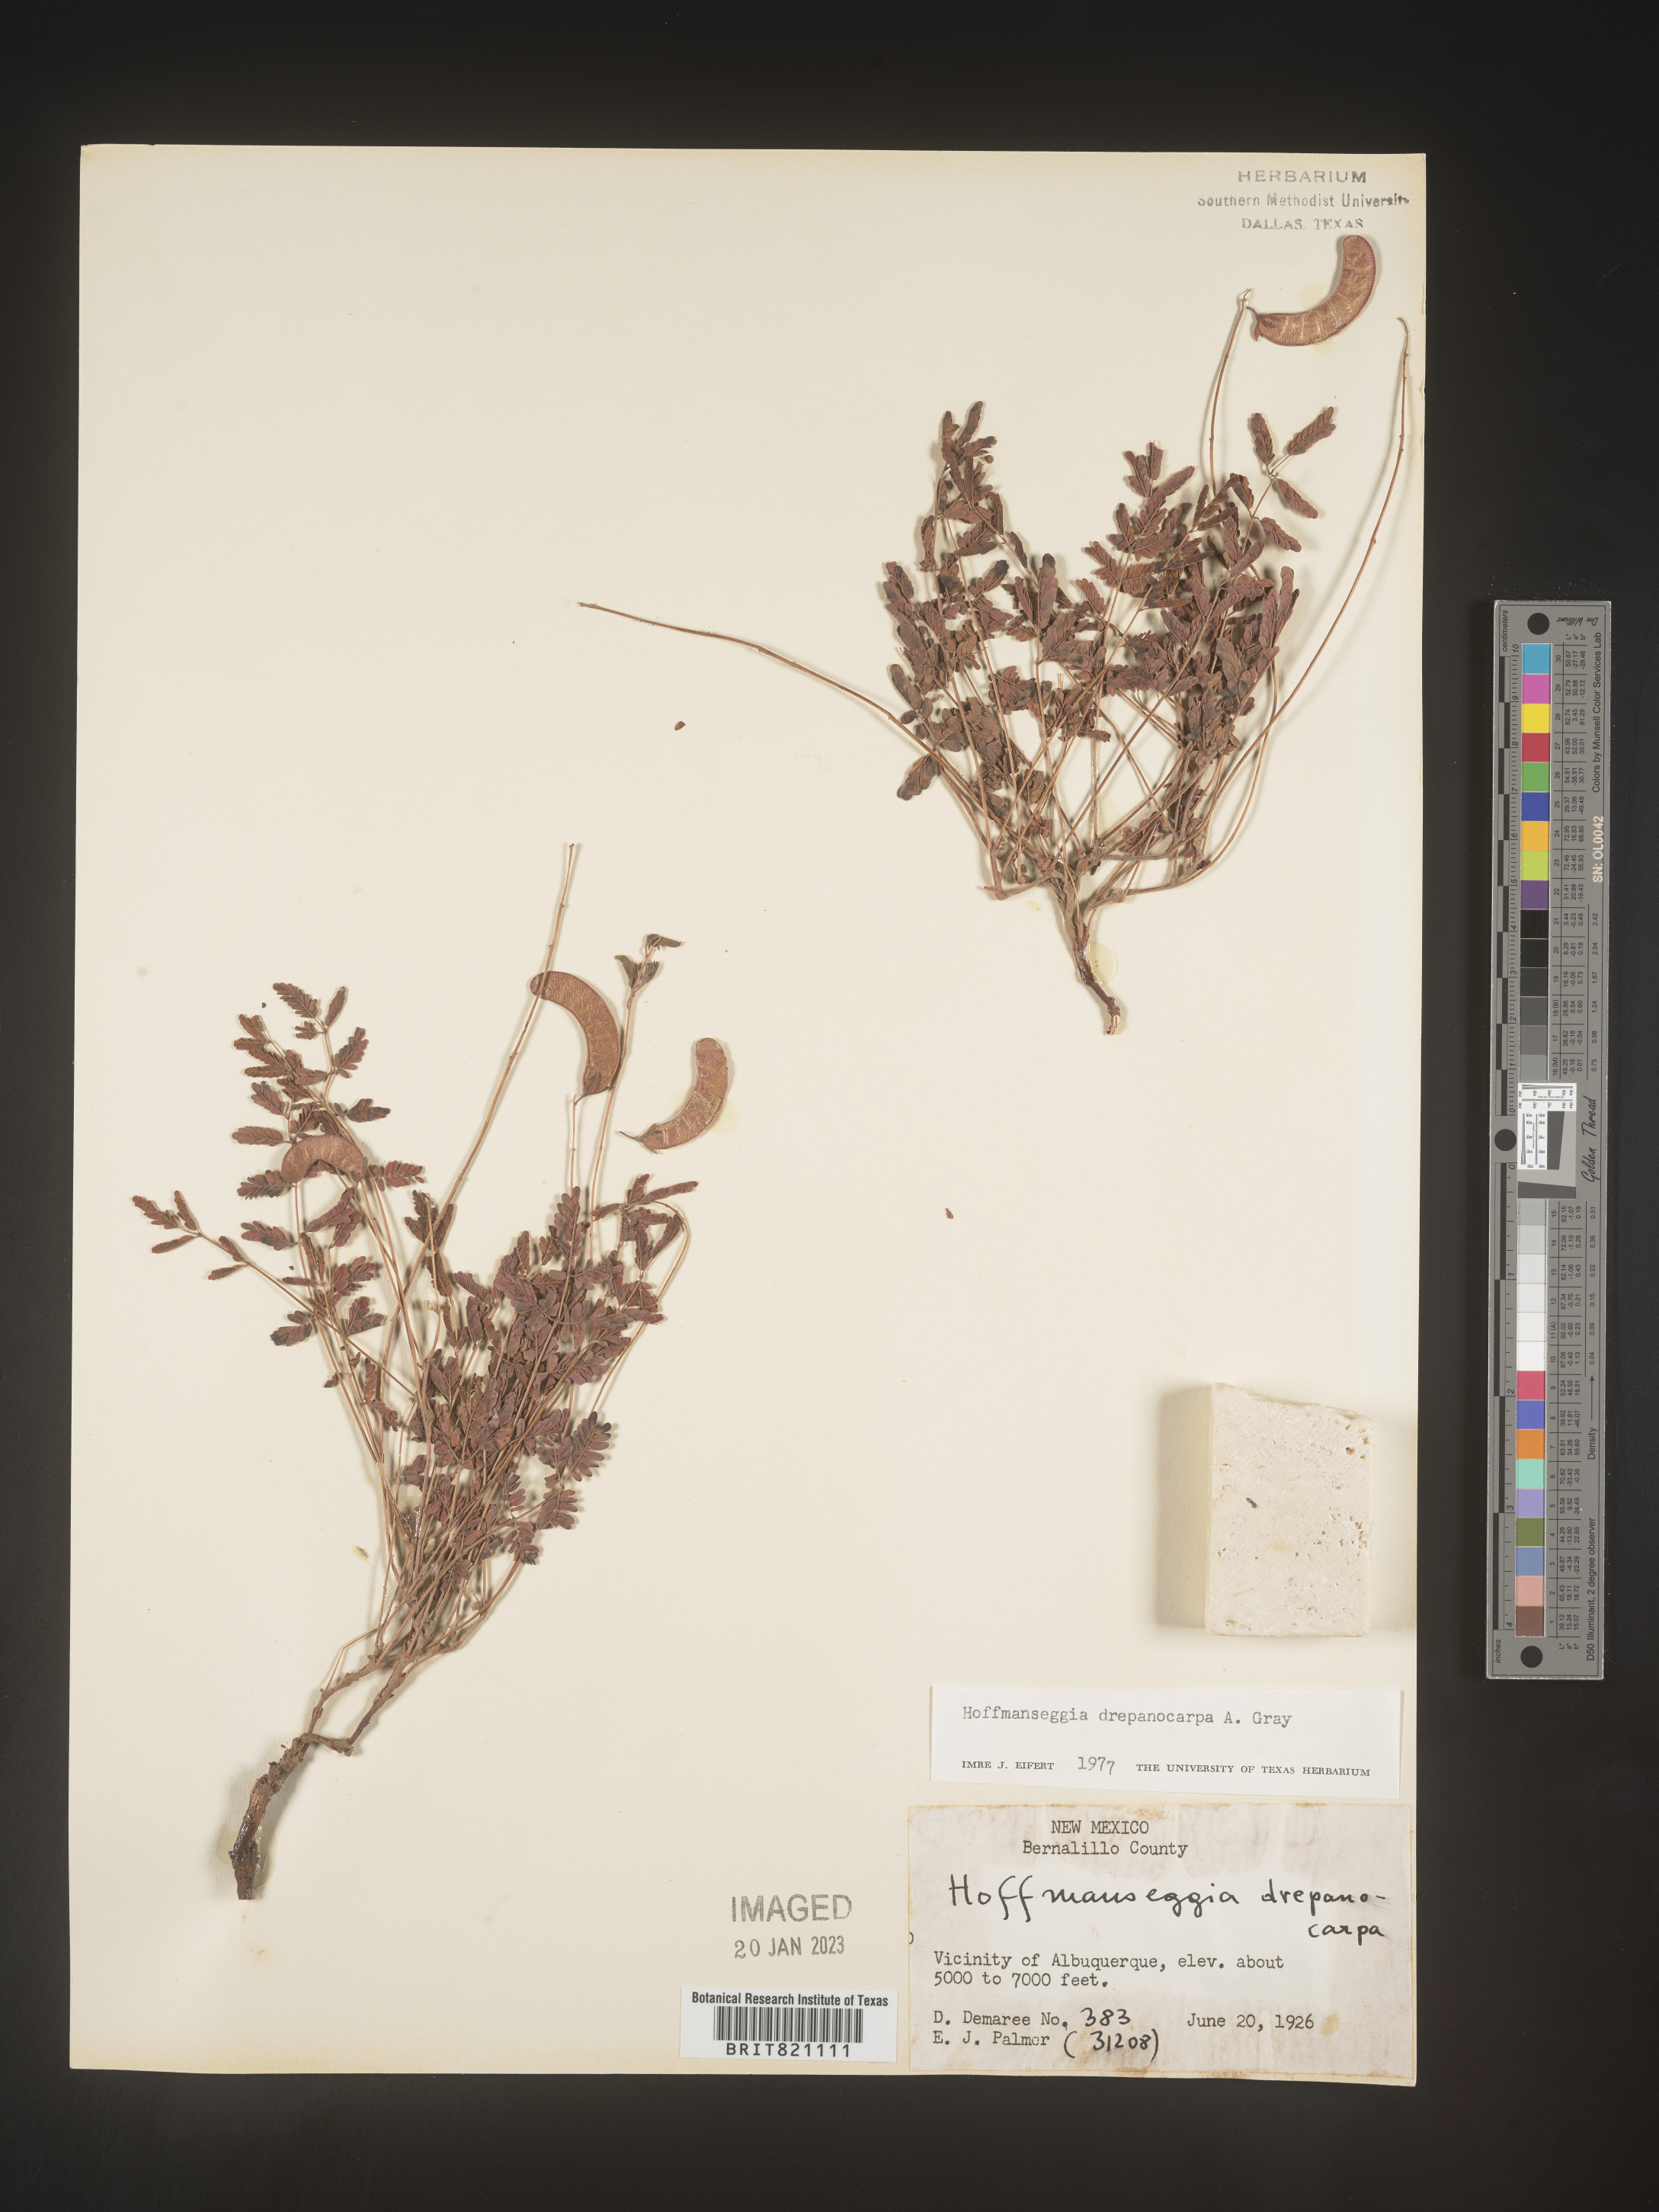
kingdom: Plantae
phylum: Tracheophyta
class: Magnoliopsida
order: Fabales
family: Fabaceae
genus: Hoffmannseggia
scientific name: Hoffmannseggia
